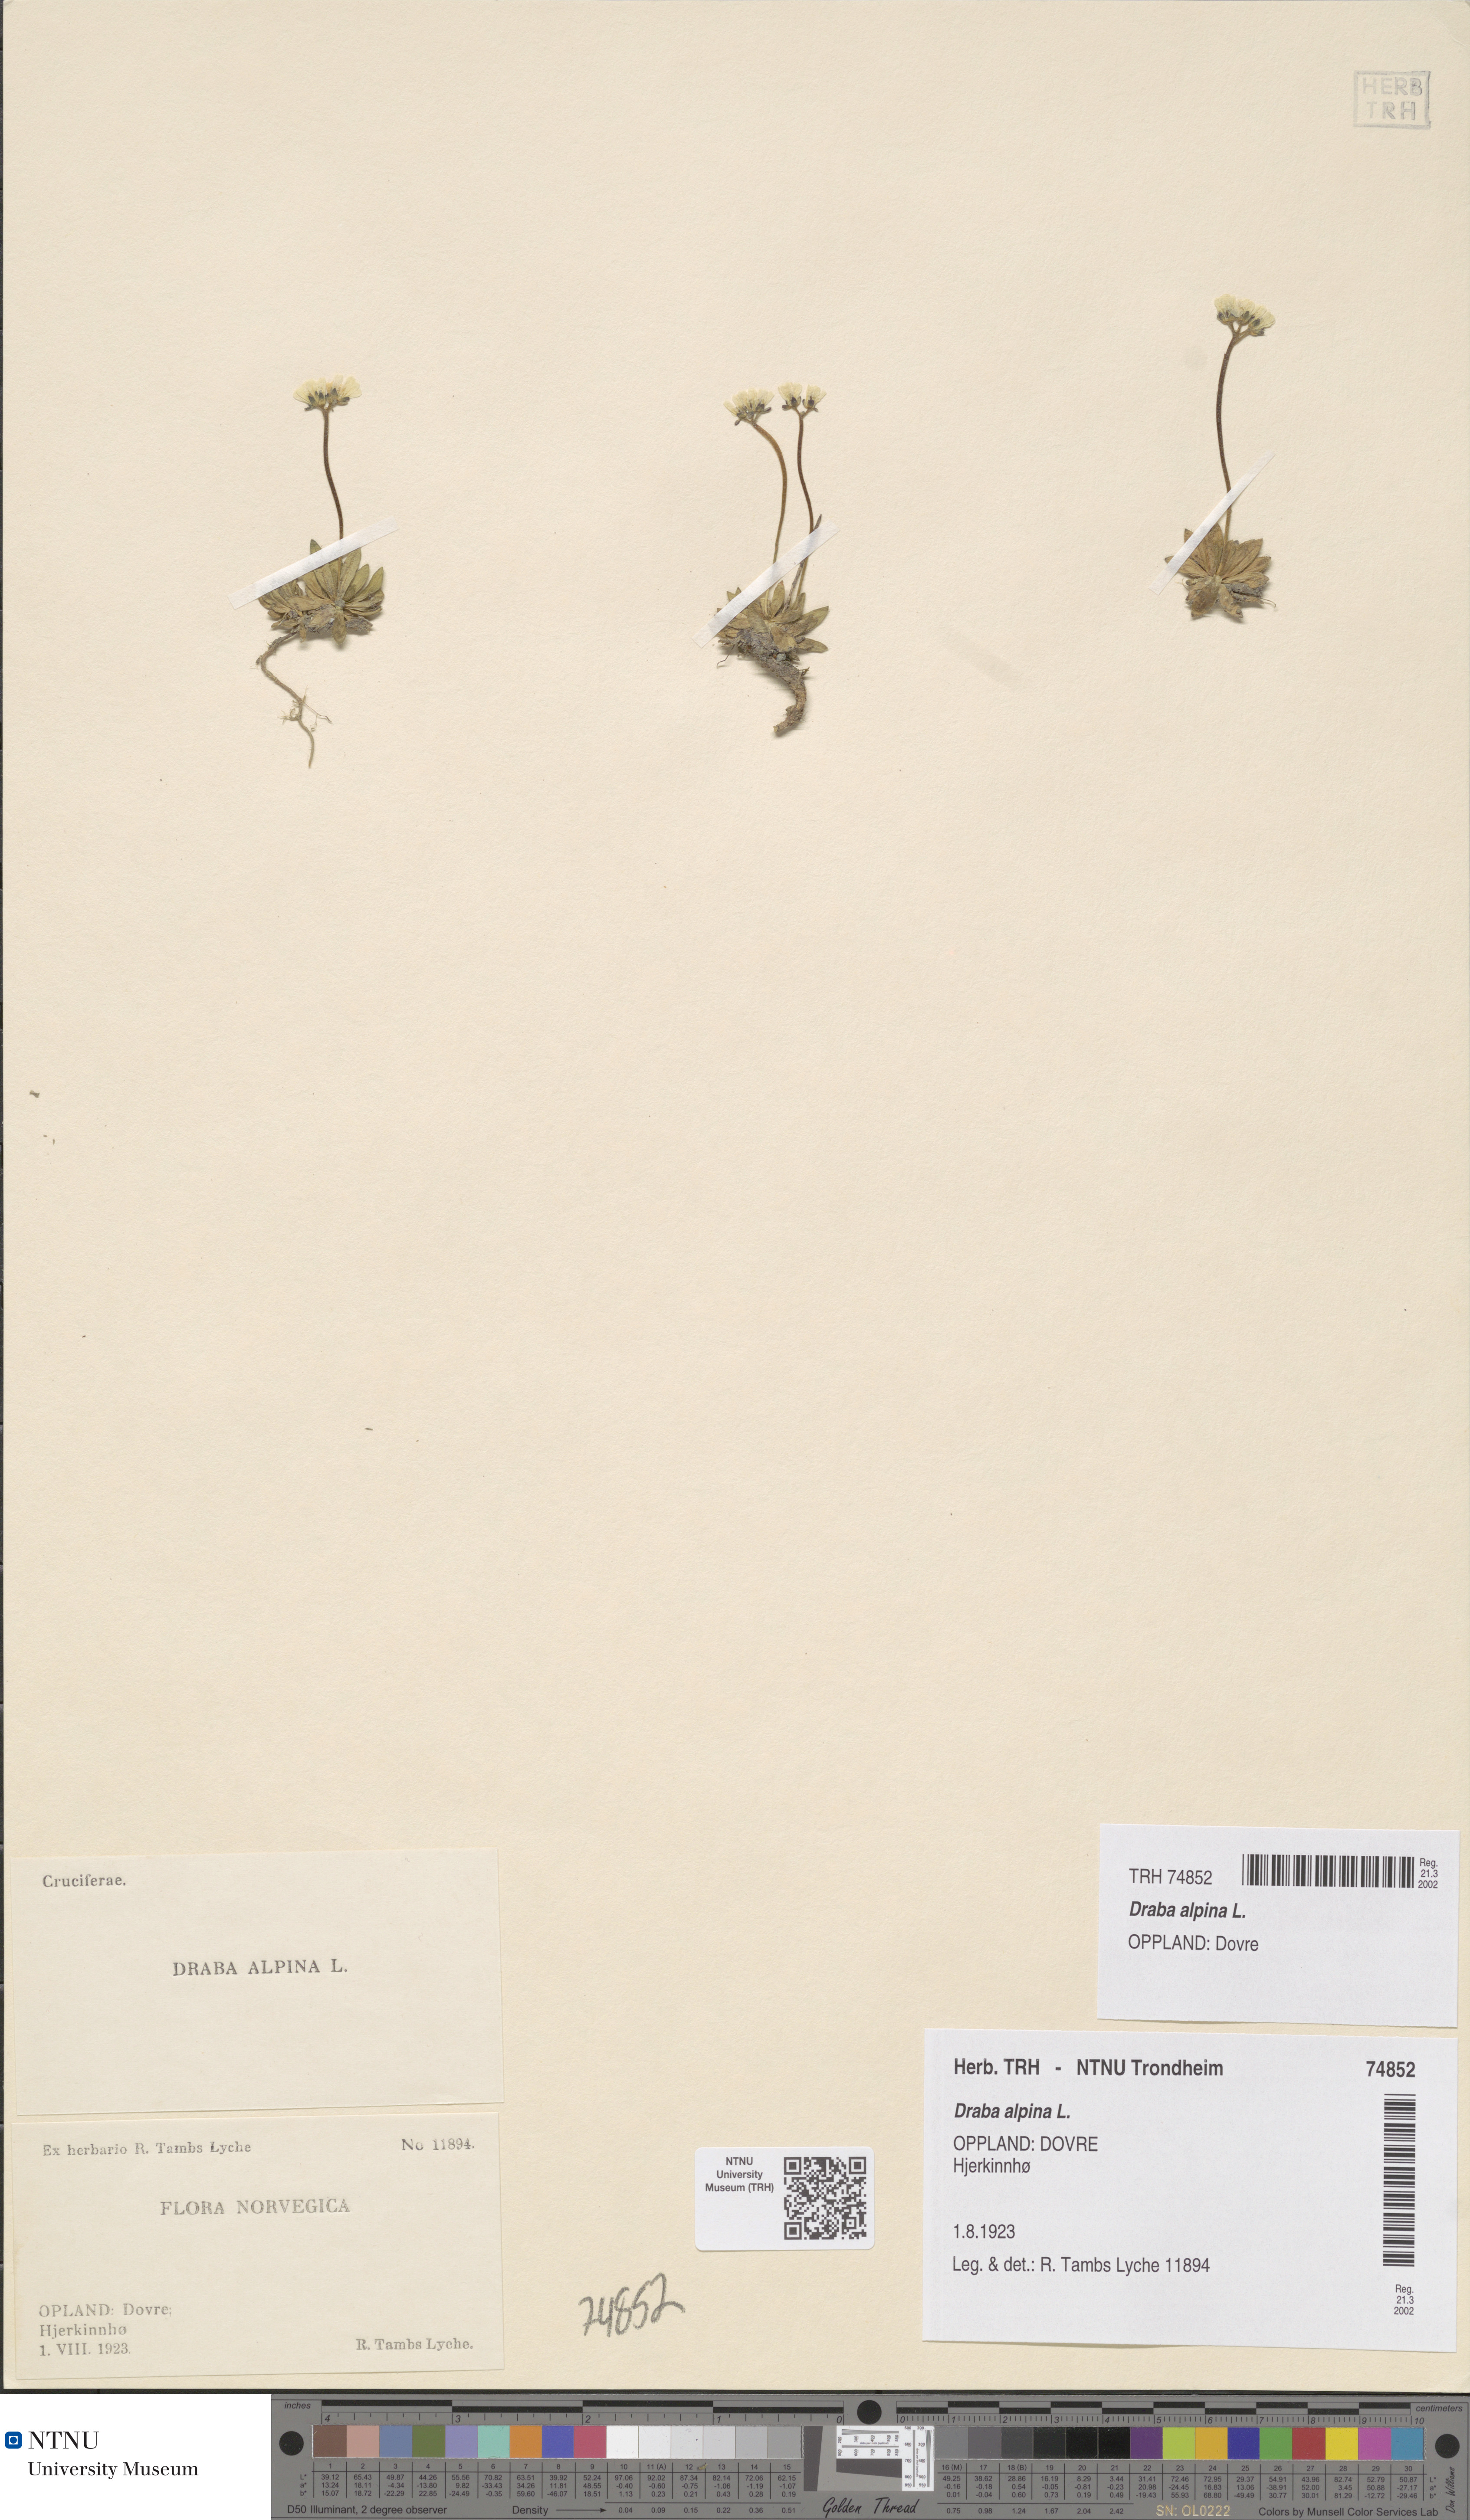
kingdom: Plantae
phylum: Tracheophyta
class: Magnoliopsida
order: Brassicales
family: Brassicaceae
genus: Draba
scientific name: Draba alpina
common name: Alpine draba
